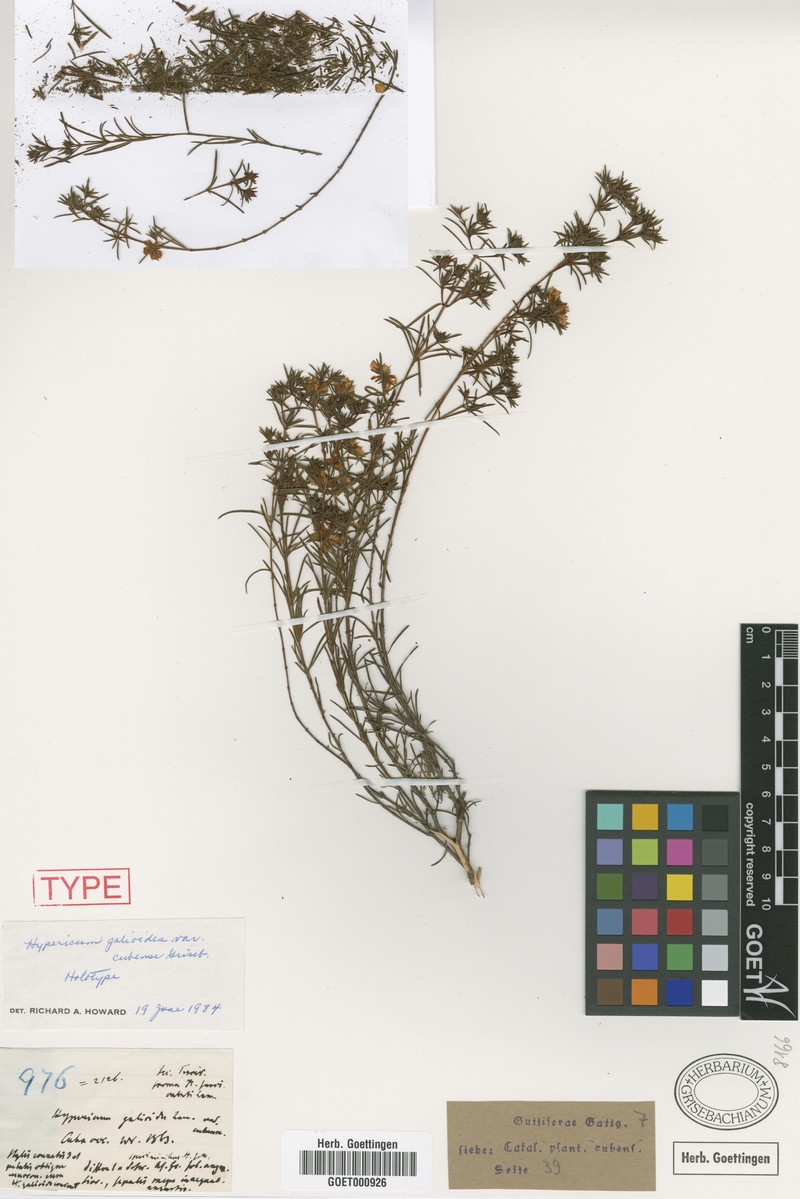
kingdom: Plantae
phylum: Tracheophyta
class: Magnoliopsida
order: Malpighiales
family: Hypericaceae
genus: Hypericum
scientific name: Hypericum nitidum
